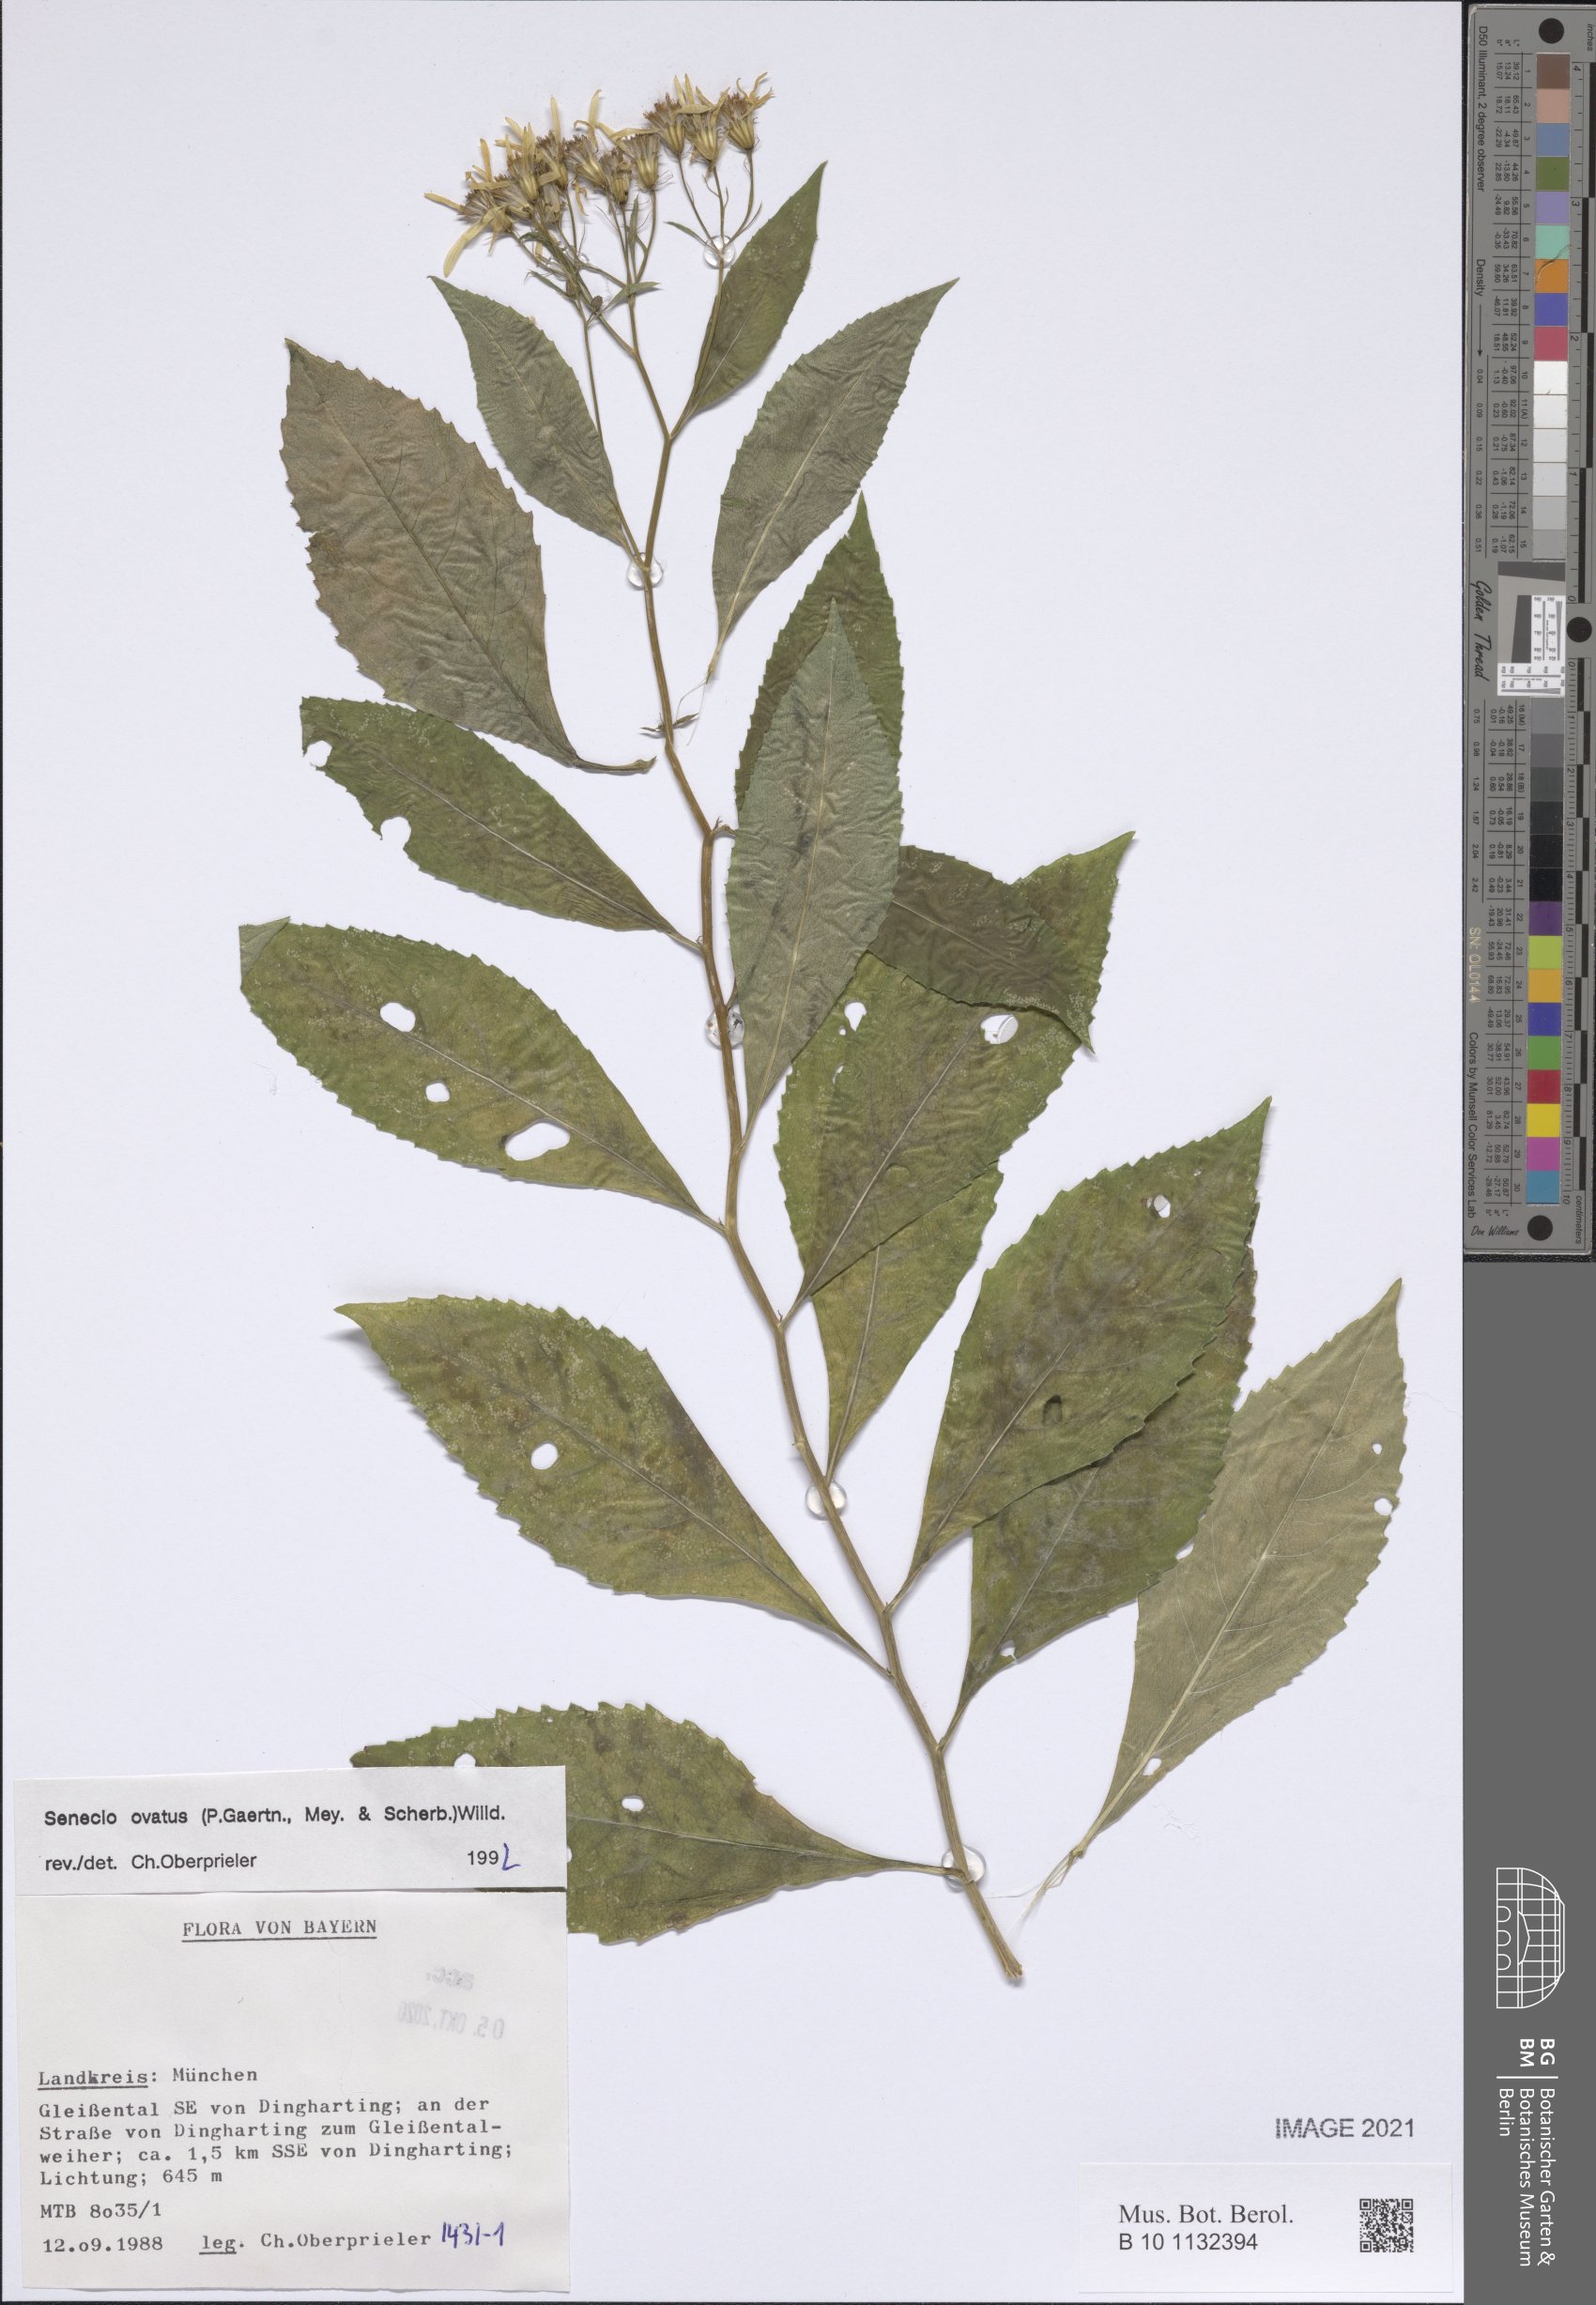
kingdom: Plantae
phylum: Tracheophyta
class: Magnoliopsida
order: Asterales
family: Asteraceae
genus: Senecio
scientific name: Senecio ovatus
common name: Wood ragwort
